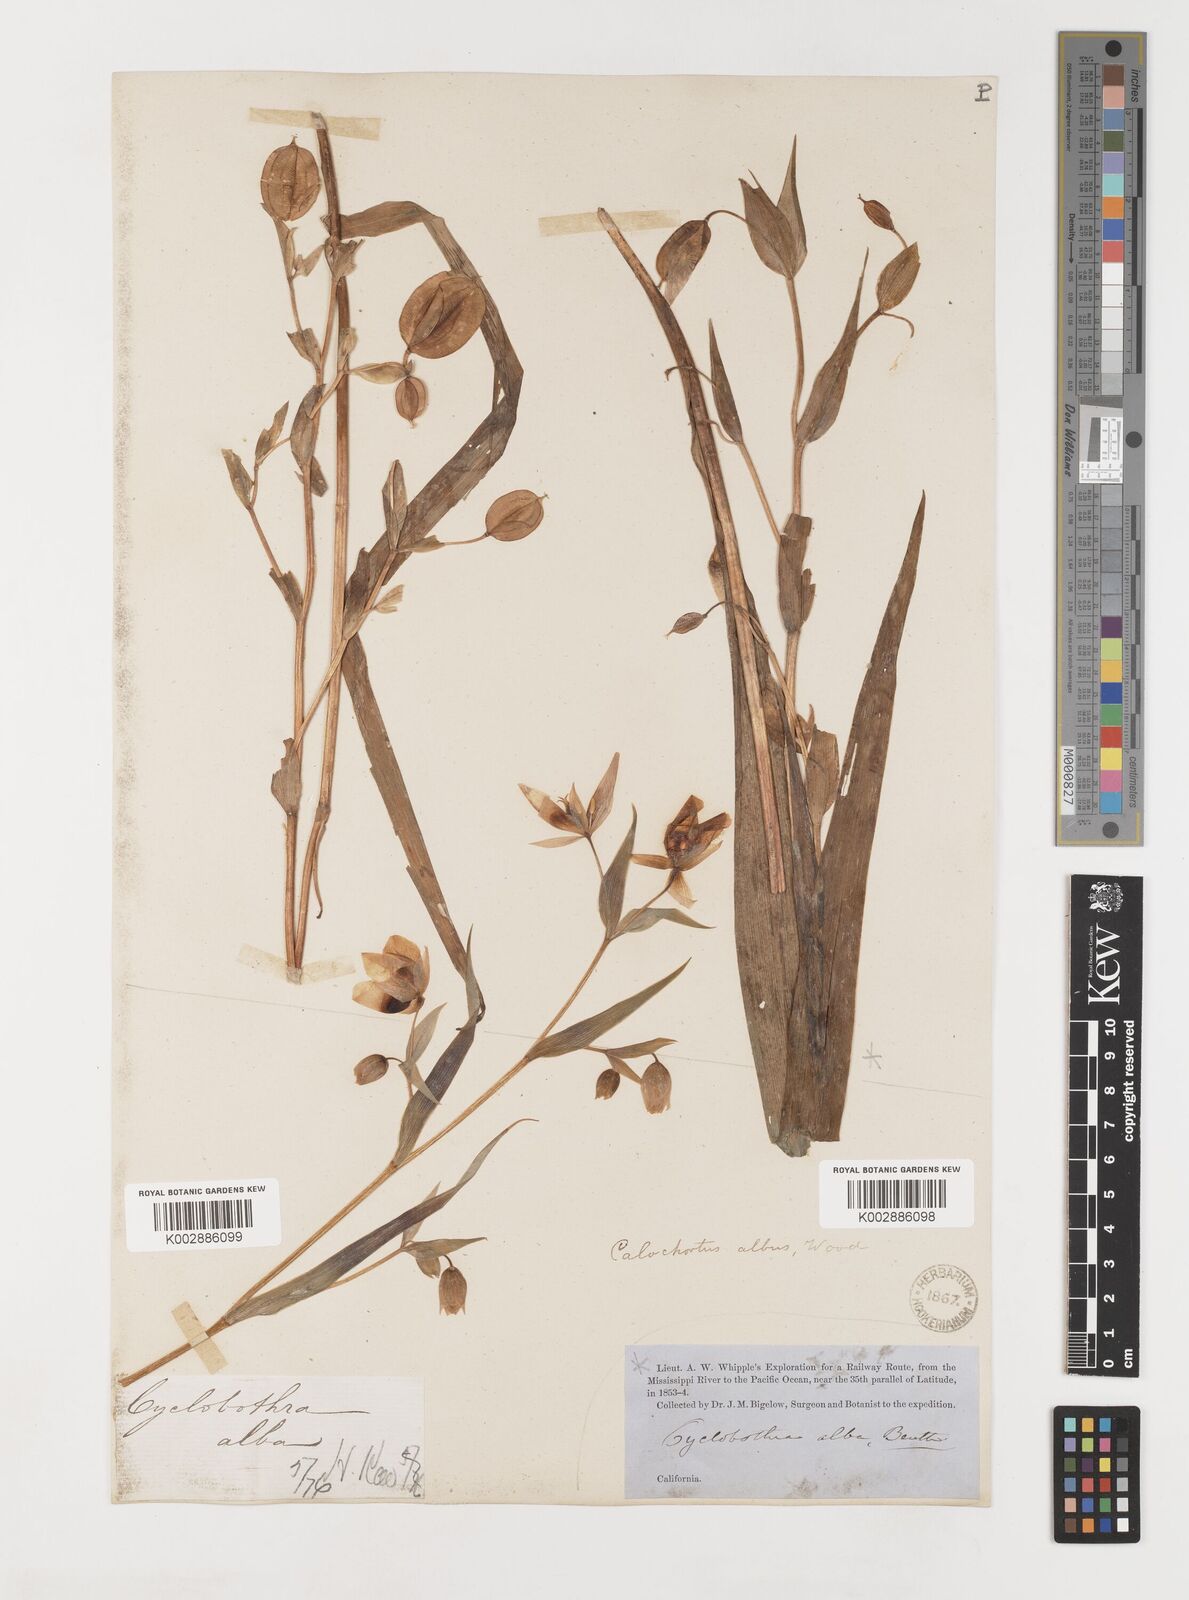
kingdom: Plantae
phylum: Tracheophyta
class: Liliopsida
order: Liliales
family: Liliaceae
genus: Calochortus
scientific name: Calochortus albus
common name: Fairy-lantern
